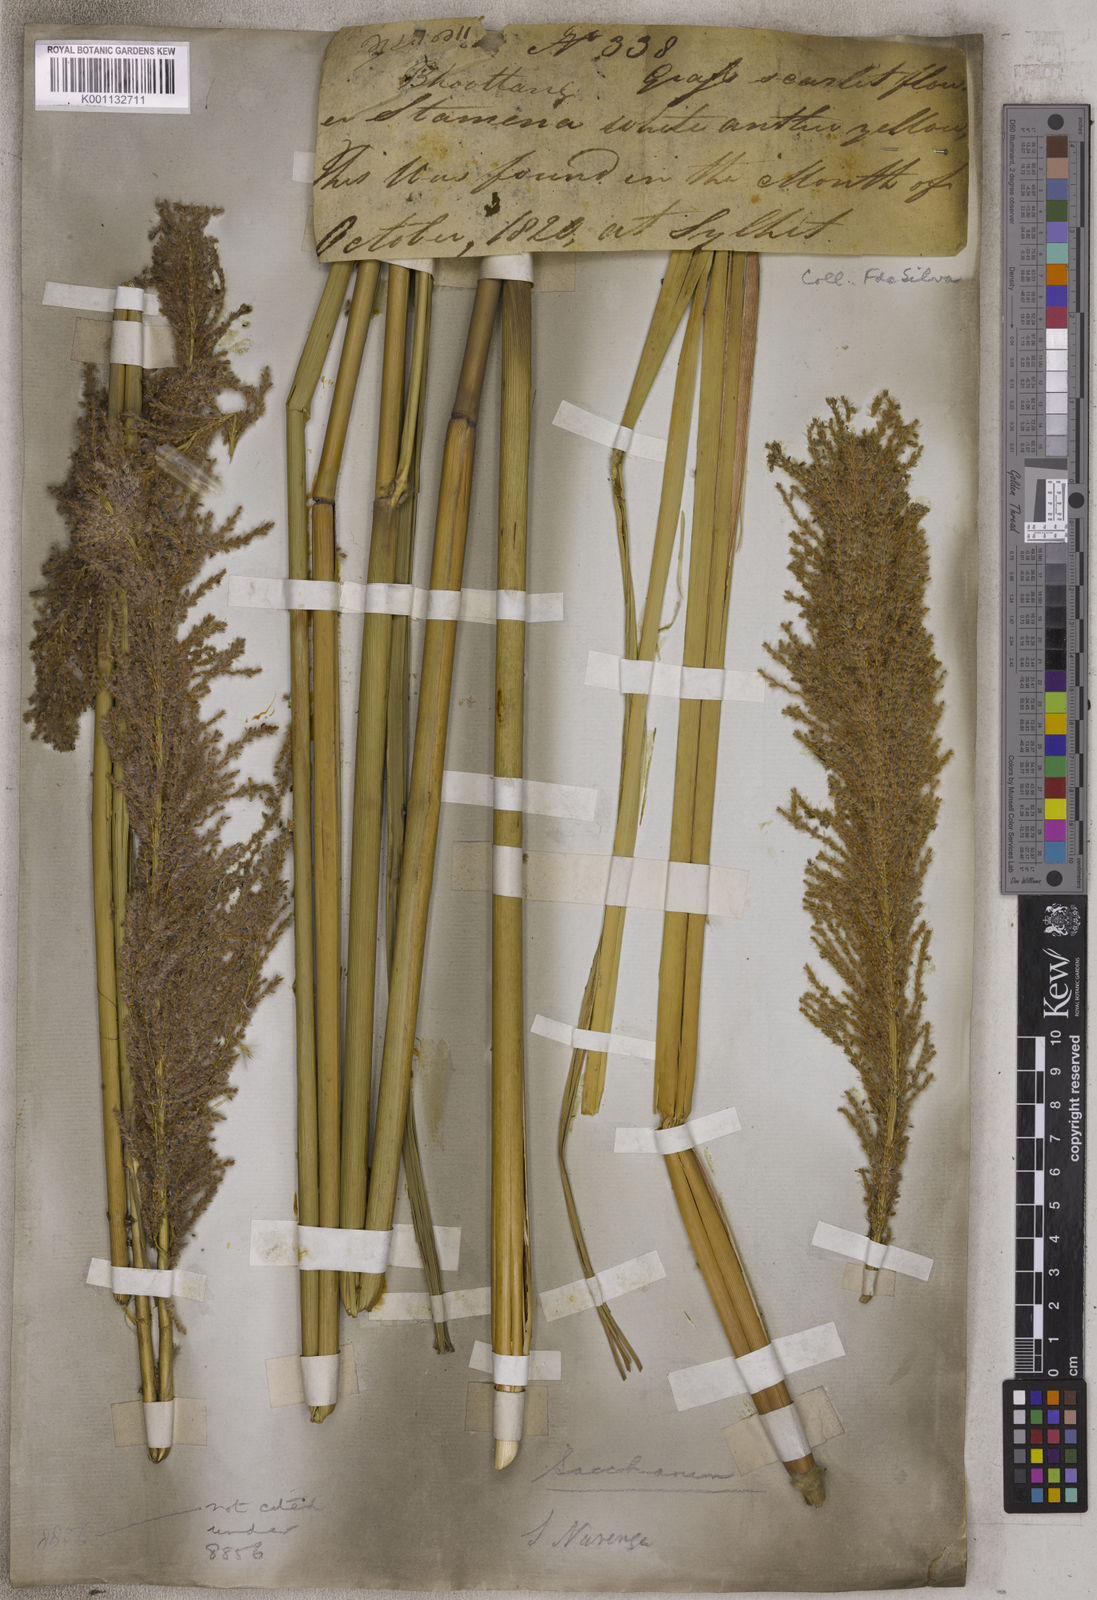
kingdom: Plantae
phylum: Tracheophyta
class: Liliopsida
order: Poales
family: Poaceae
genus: Narenga
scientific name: Narenga porphyrocoma
